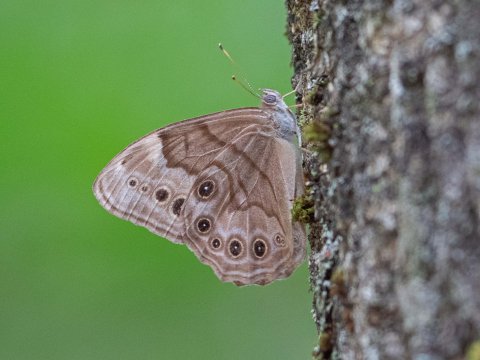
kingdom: Animalia
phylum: Arthropoda
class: Insecta
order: Lepidoptera
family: Nymphalidae
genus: Lethe
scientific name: Lethe anthedon
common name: Northern Pearly-Eye
